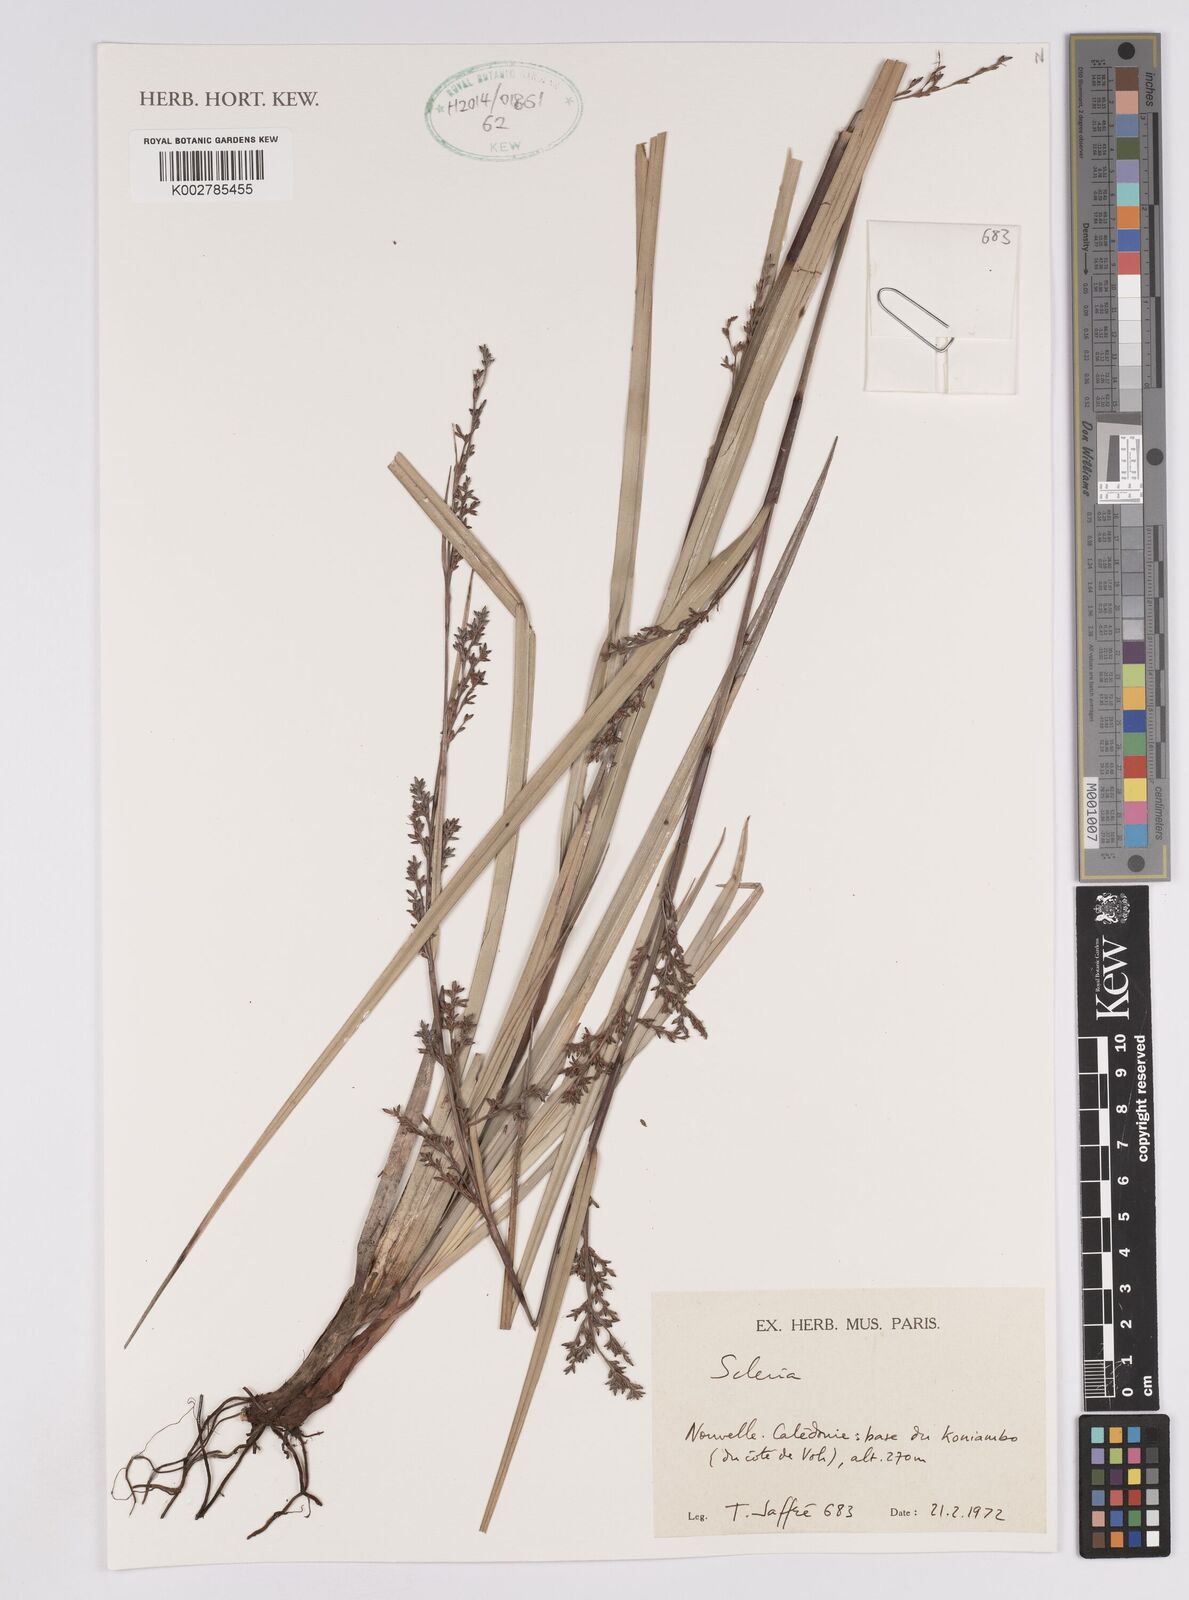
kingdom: Plantae
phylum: Tracheophyta
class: Liliopsida
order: Poales
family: Cyperaceae
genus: Scleria
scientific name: Scleria
